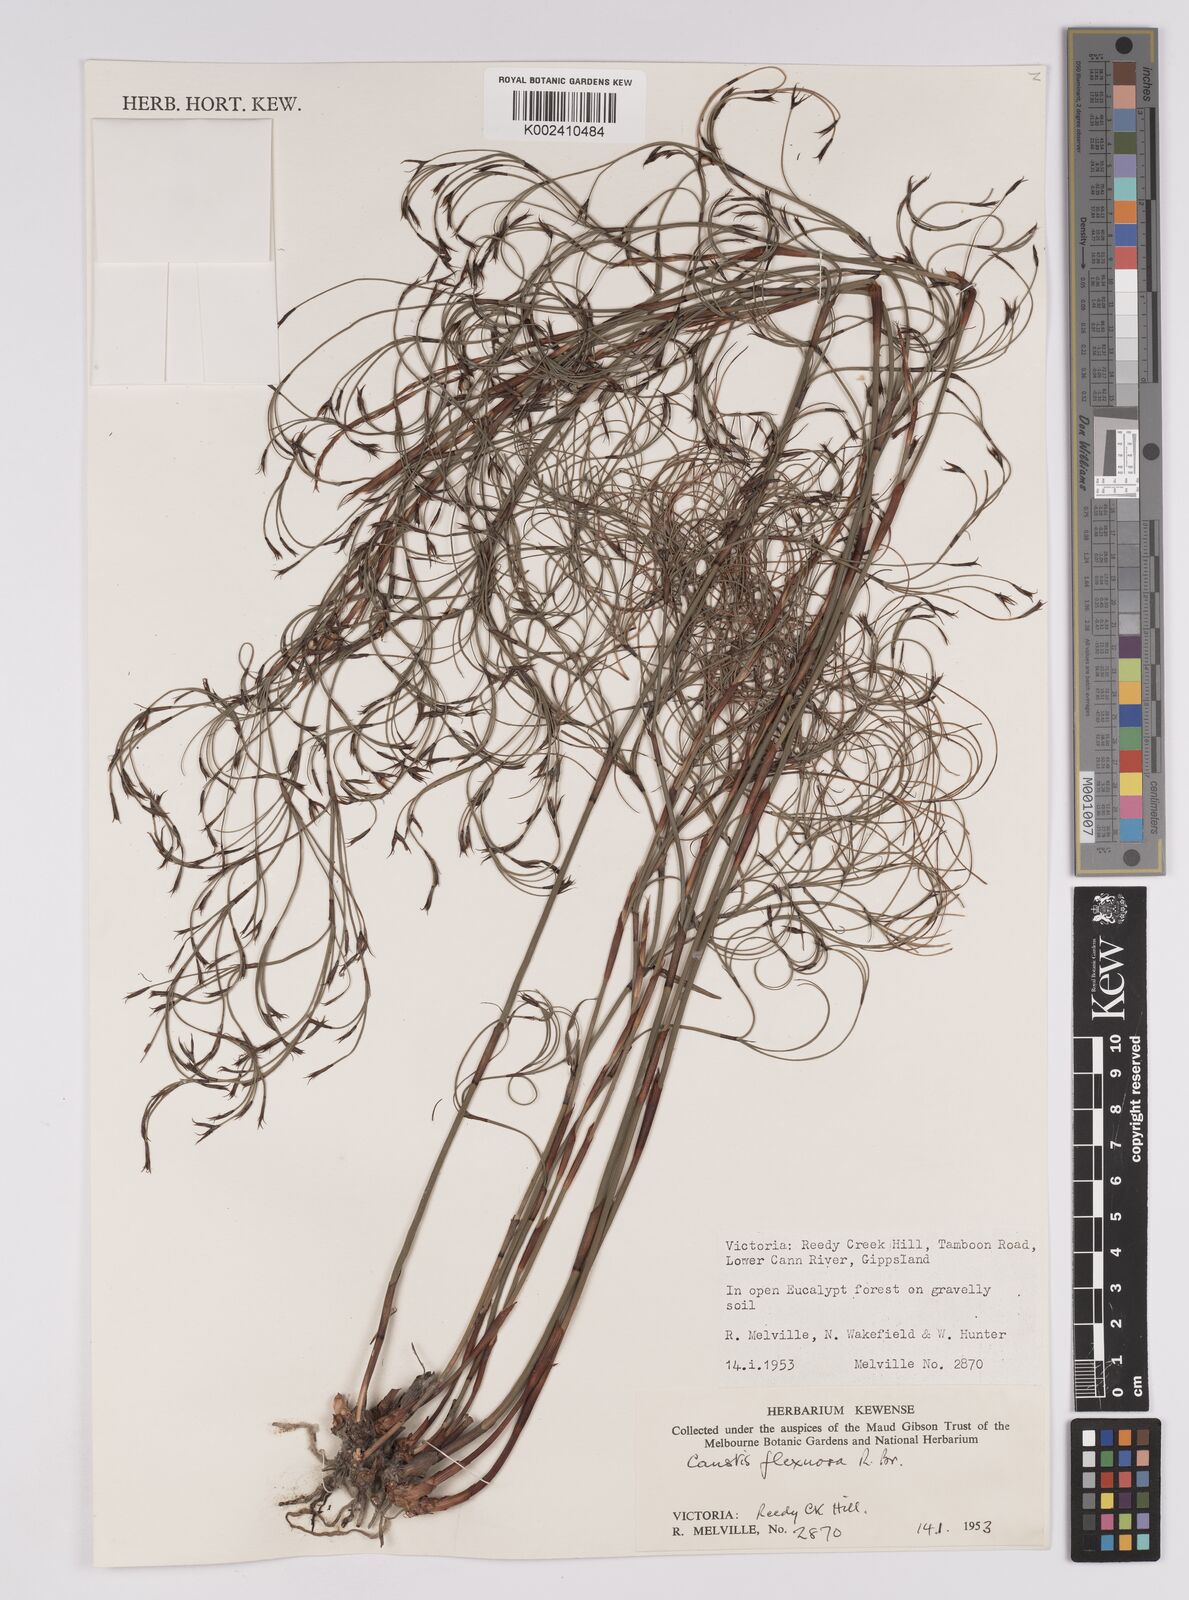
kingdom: Plantae
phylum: Tracheophyta
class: Liliopsida
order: Poales
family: Cyperaceae
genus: Caustis
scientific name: Caustis flexuosa
